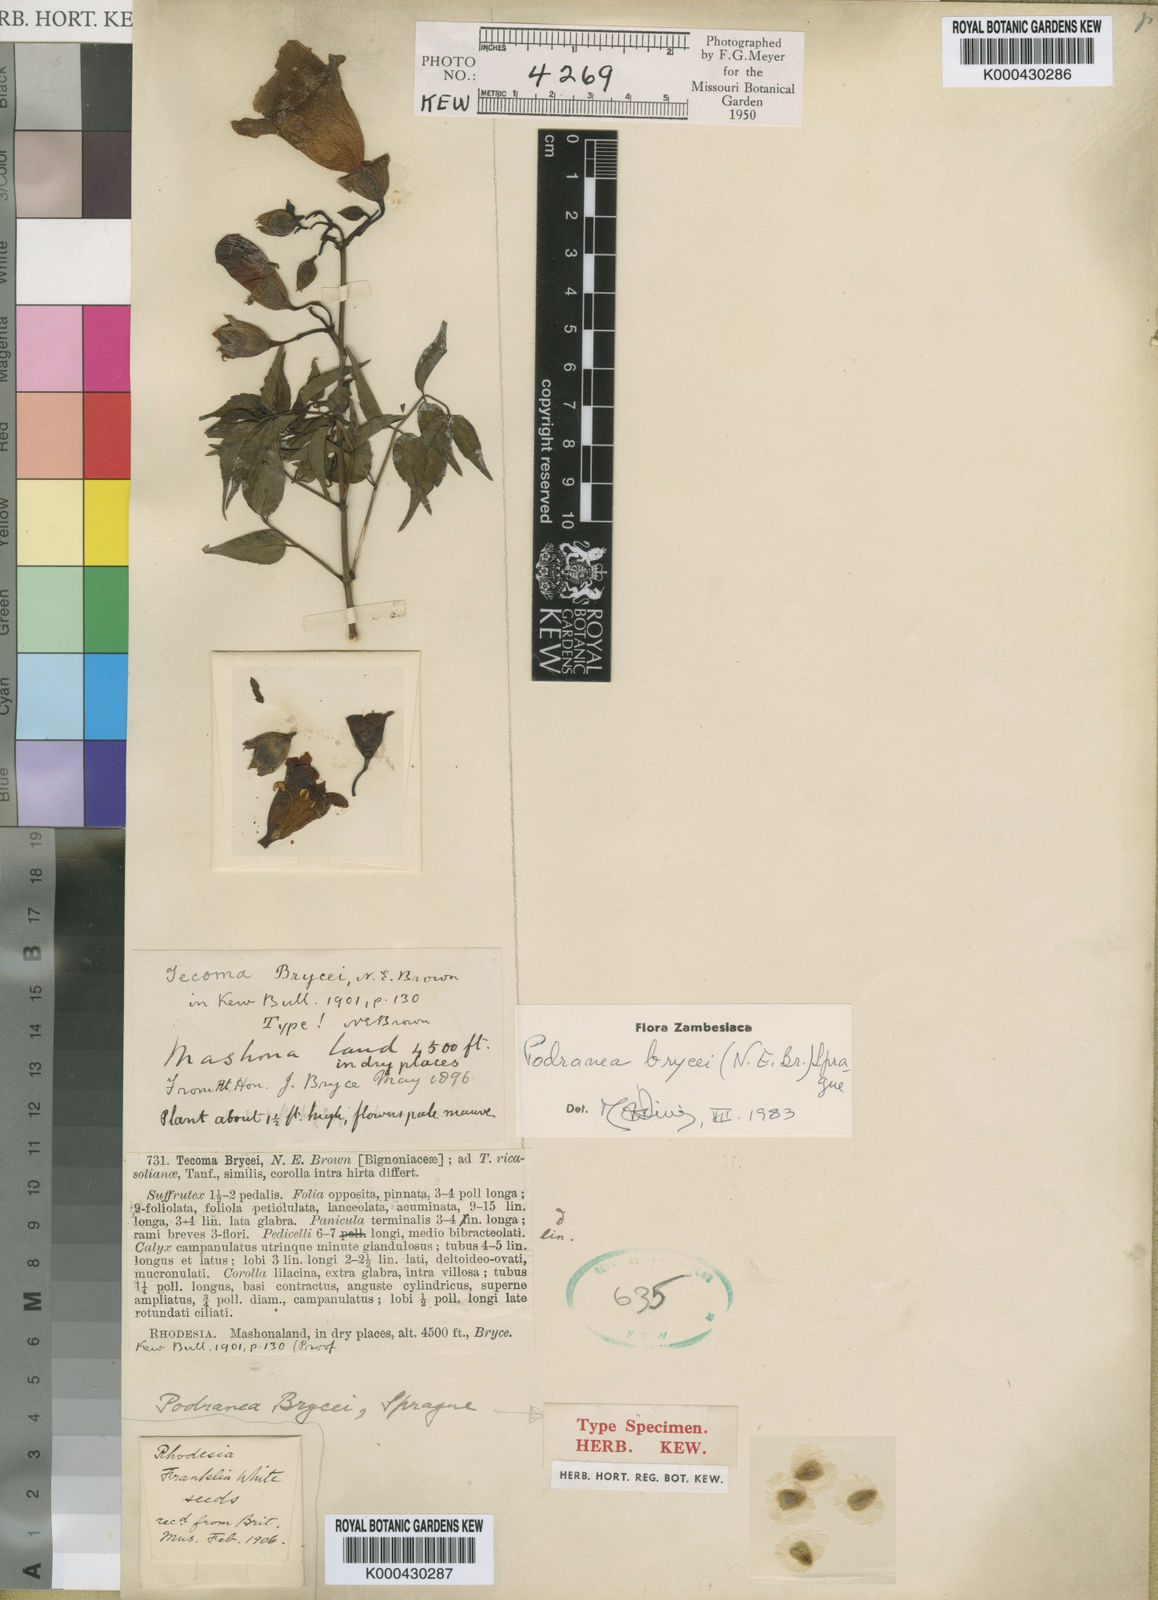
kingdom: Plantae
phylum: Tracheophyta
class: Magnoliopsida
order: Lamiales
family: Bignoniaceae
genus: Podranea
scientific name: Podranea brycei
